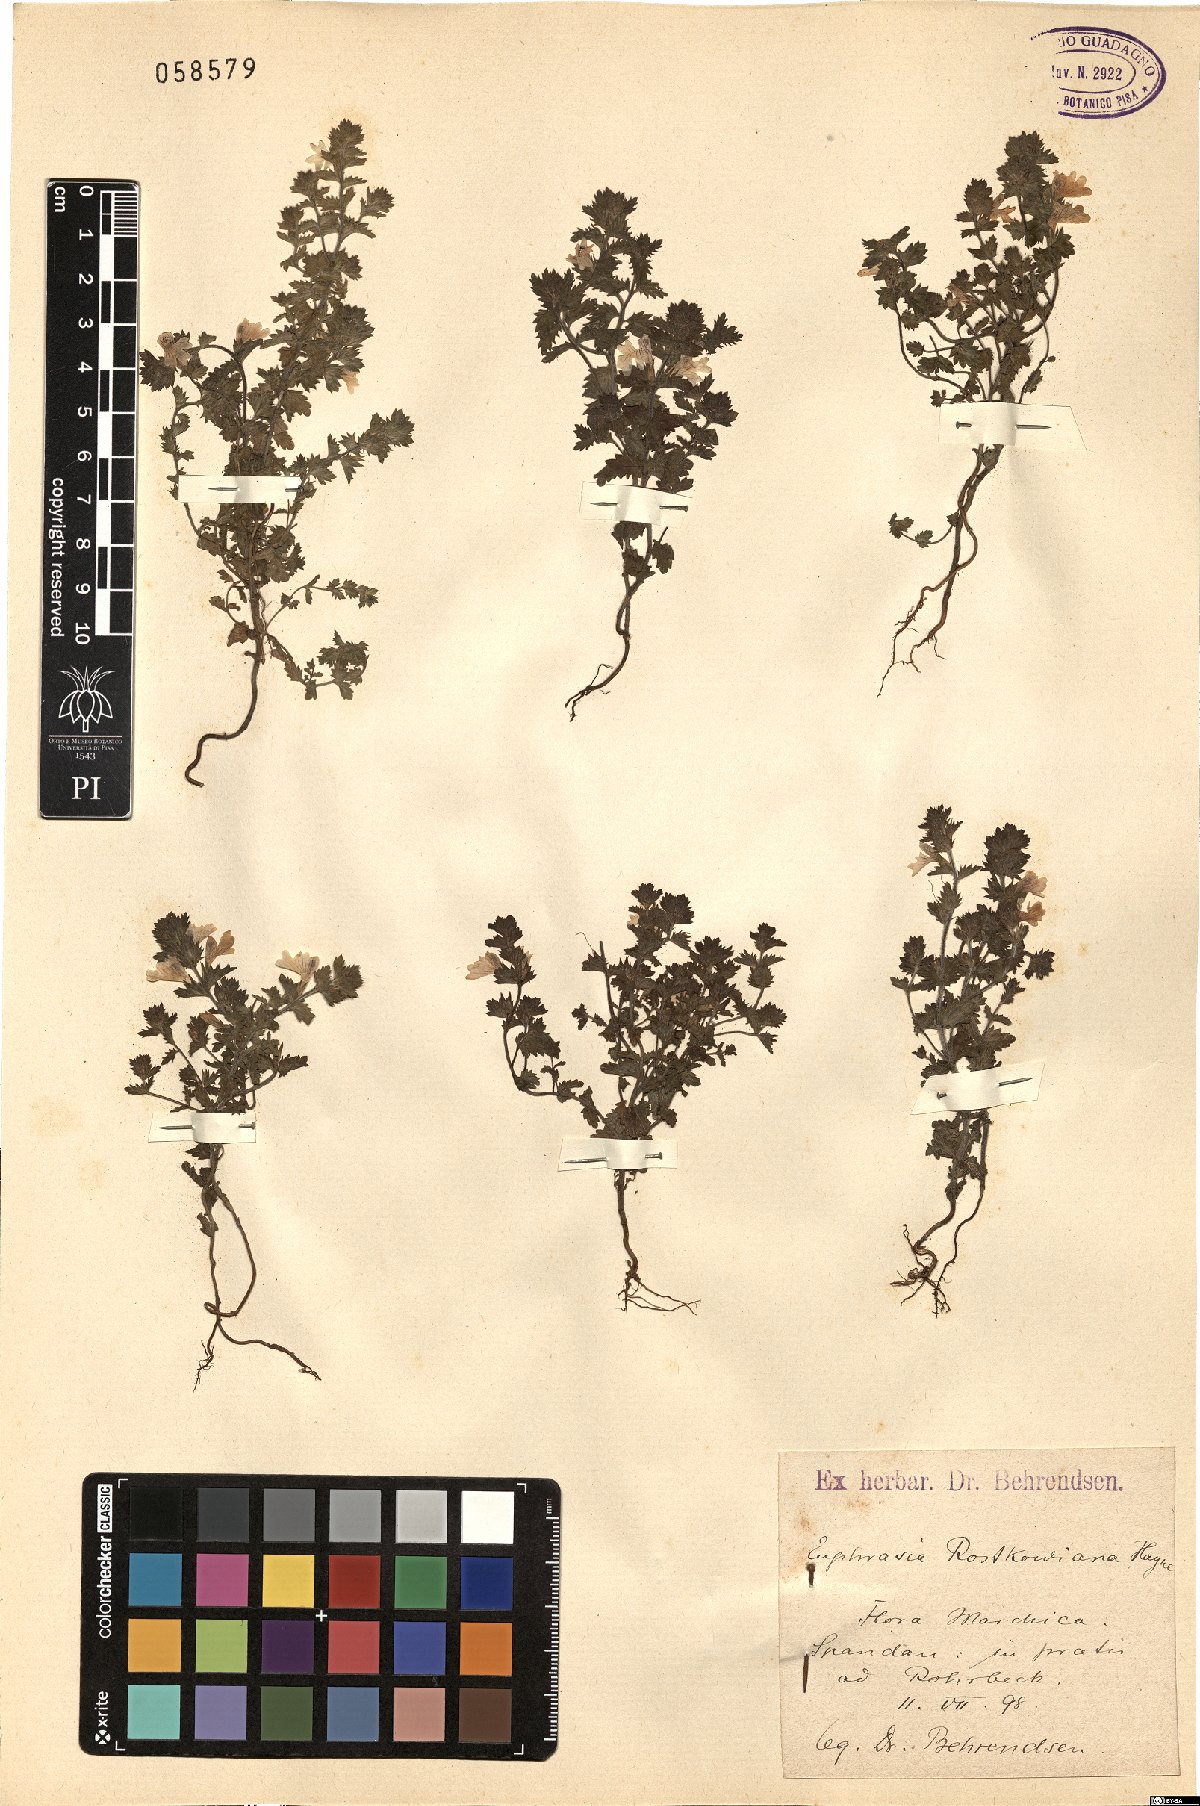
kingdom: Plantae
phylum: Tracheophyta
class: Magnoliopsida
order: Lamiales
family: Orobanchaceae
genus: Euphrasia
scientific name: Euphrasia officinalis
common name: Eyebright
